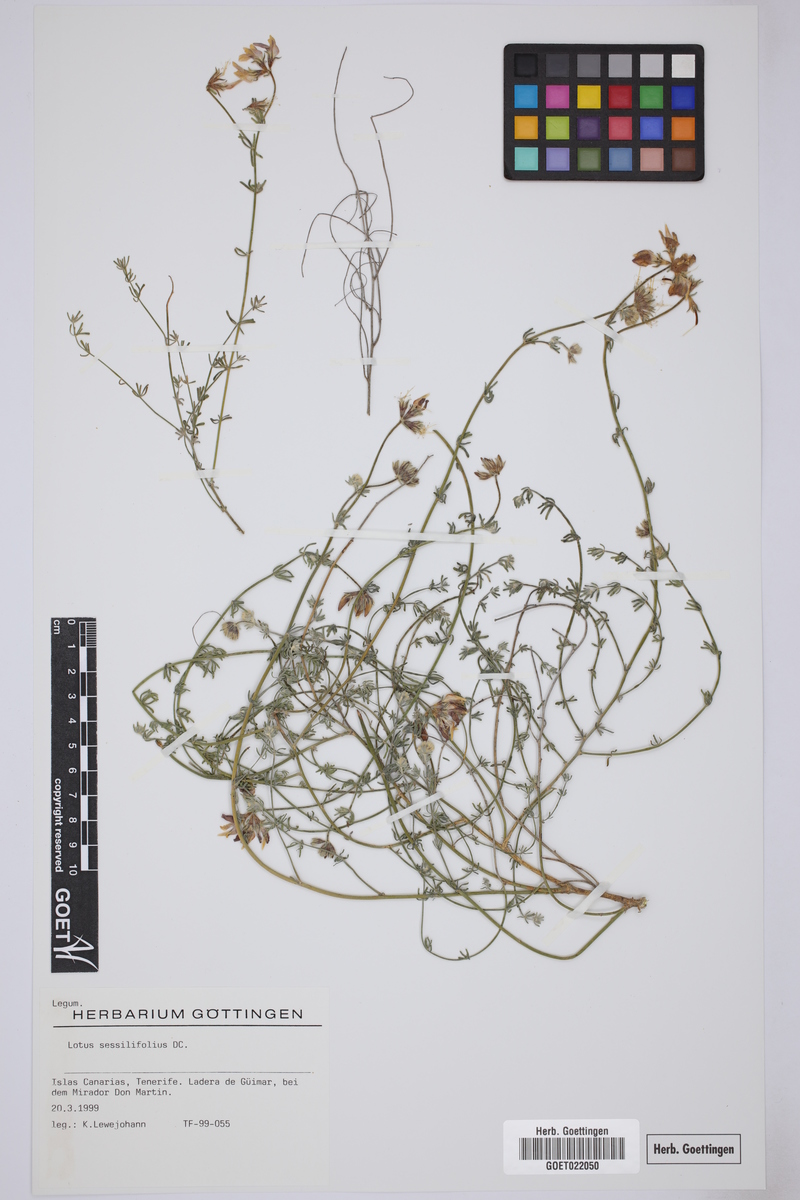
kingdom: Plantae
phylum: Tracheophyta
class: Magnoliopsida
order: Fabales
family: Fabaceae
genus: Lotus
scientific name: Lotus sessilifolius
